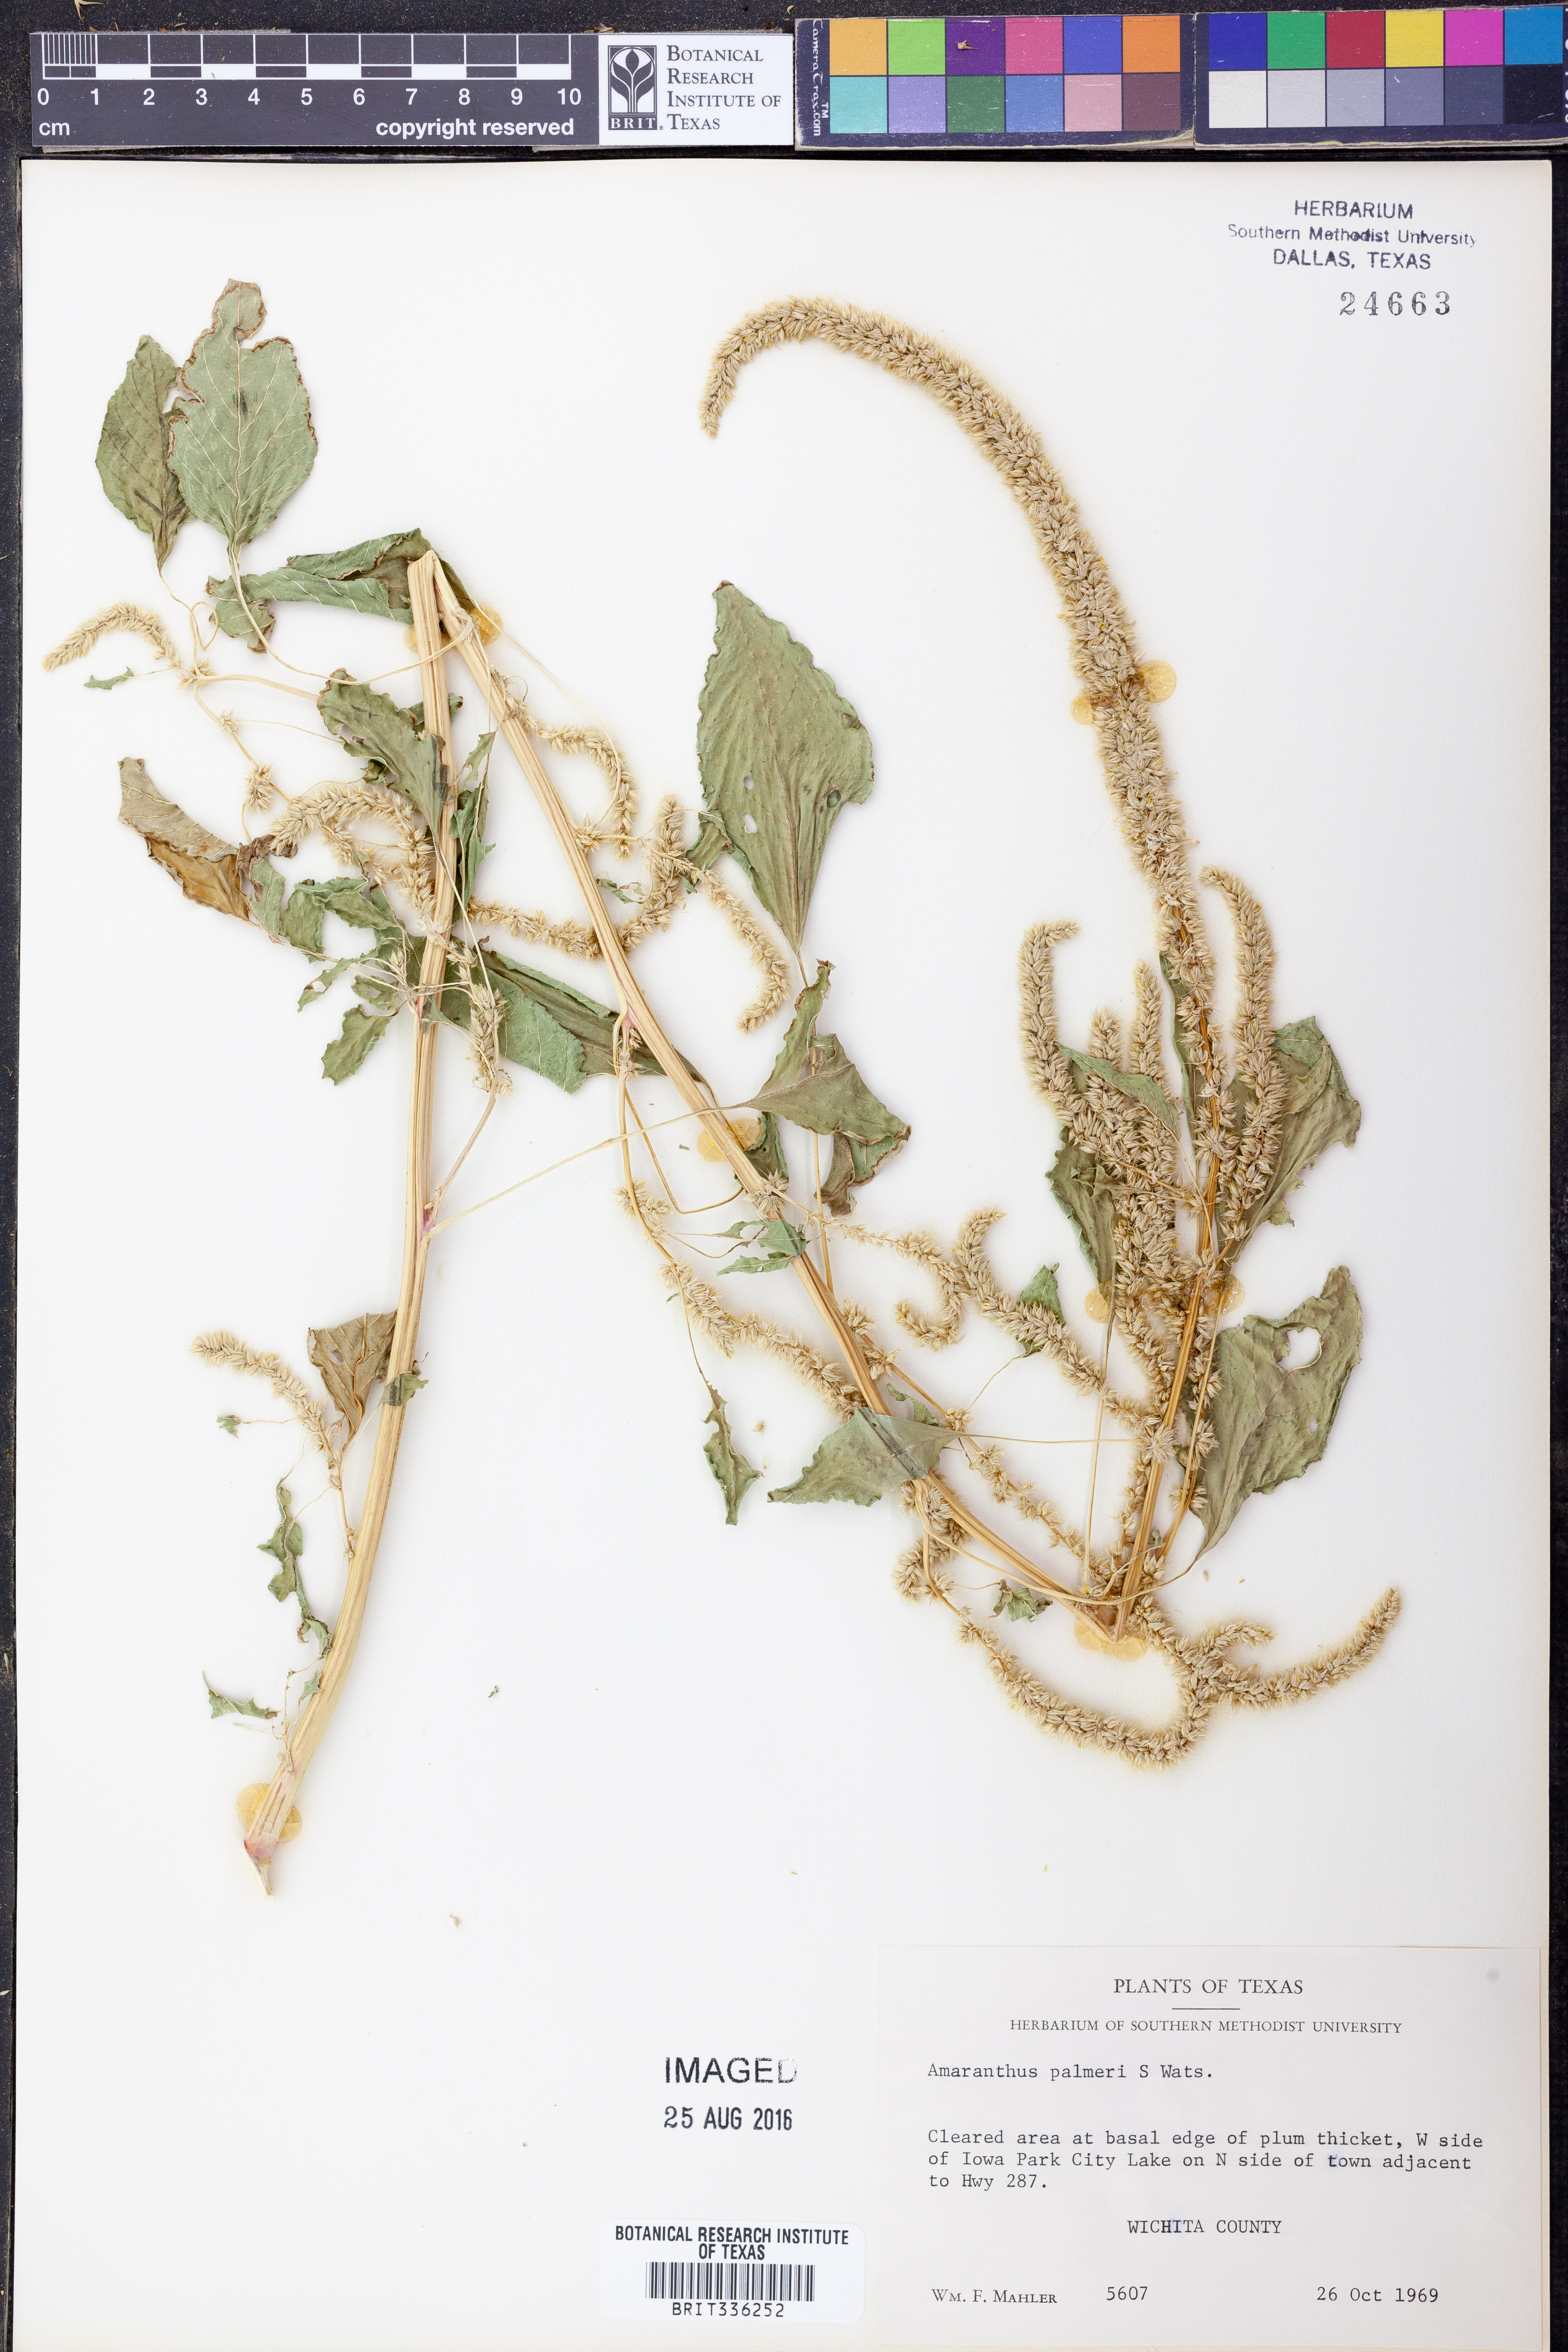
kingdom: Plantae
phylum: Tracheophyta
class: Magnoliopsida
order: Caryophyllales
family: Amaranthaceae
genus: Amaranthus
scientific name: Amaranthus palmeri
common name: Dioecious amaranth
